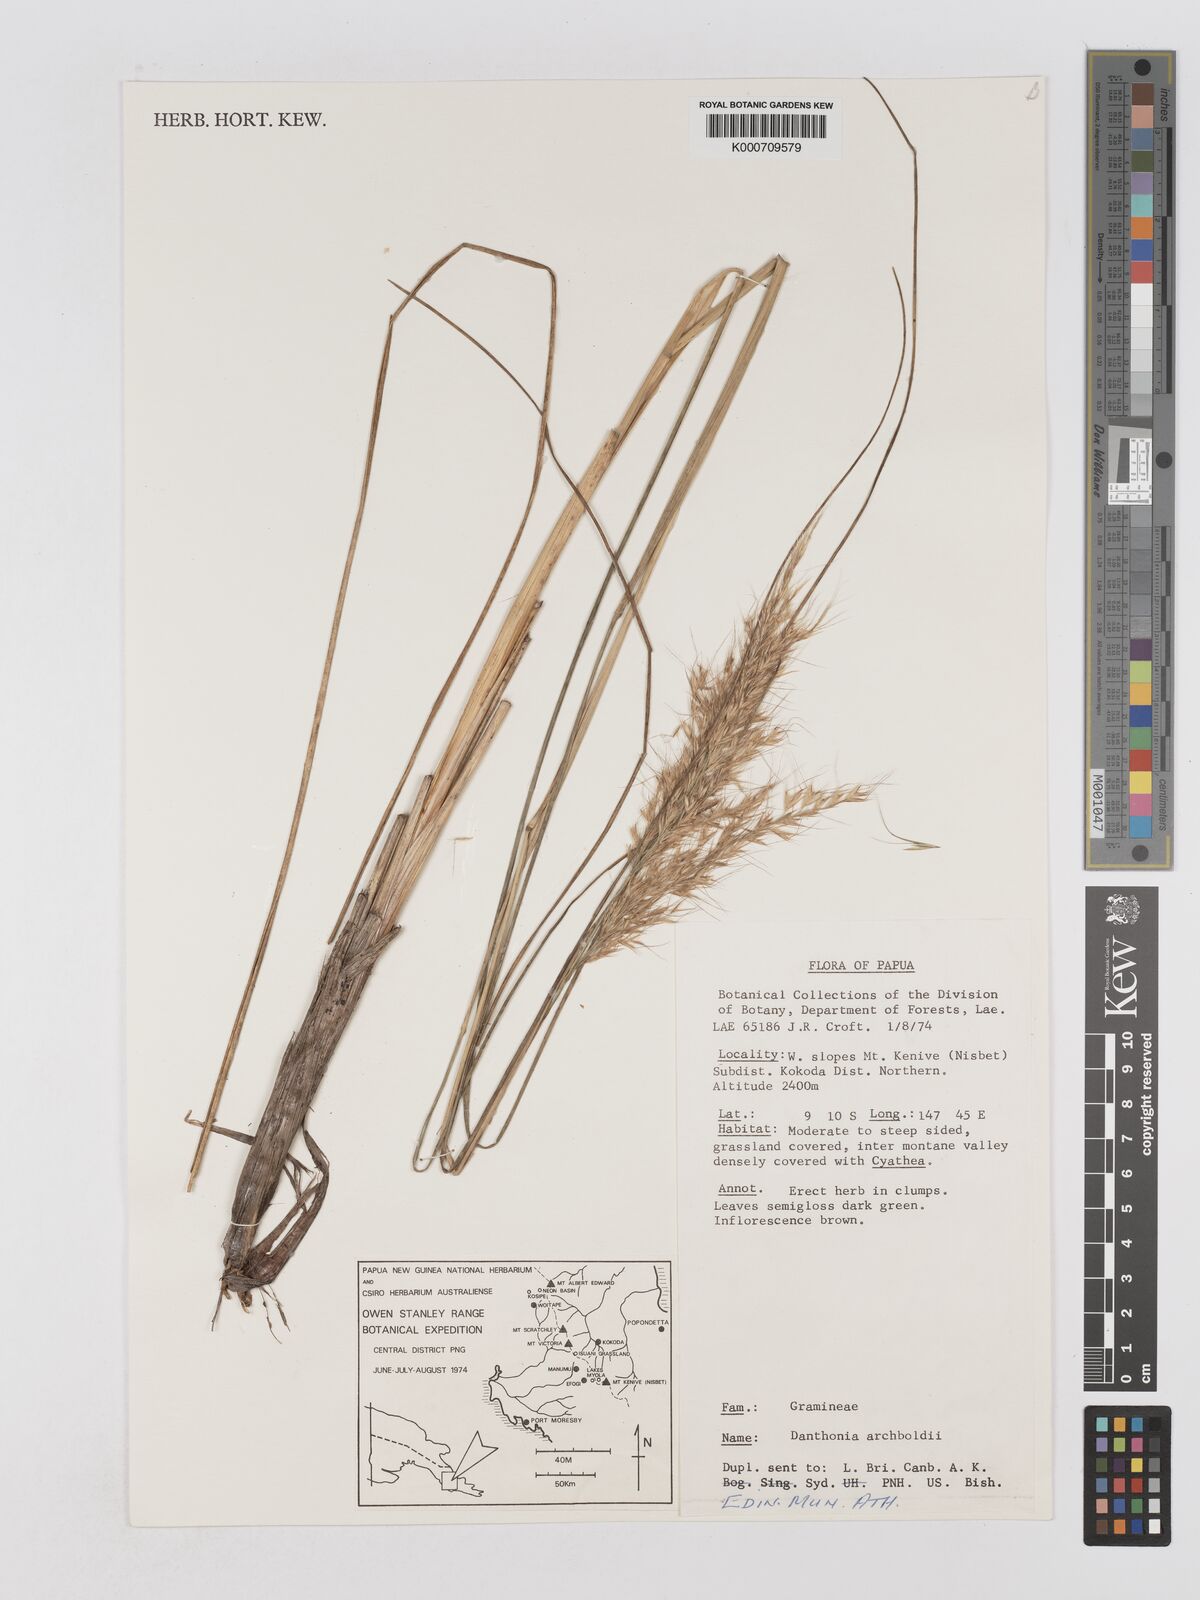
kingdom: Plantae
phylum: Tracheophyta
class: Liliopsida
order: Poales
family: Poaceae
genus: Chimaerochloa
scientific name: Chimaerochloa archboldii
